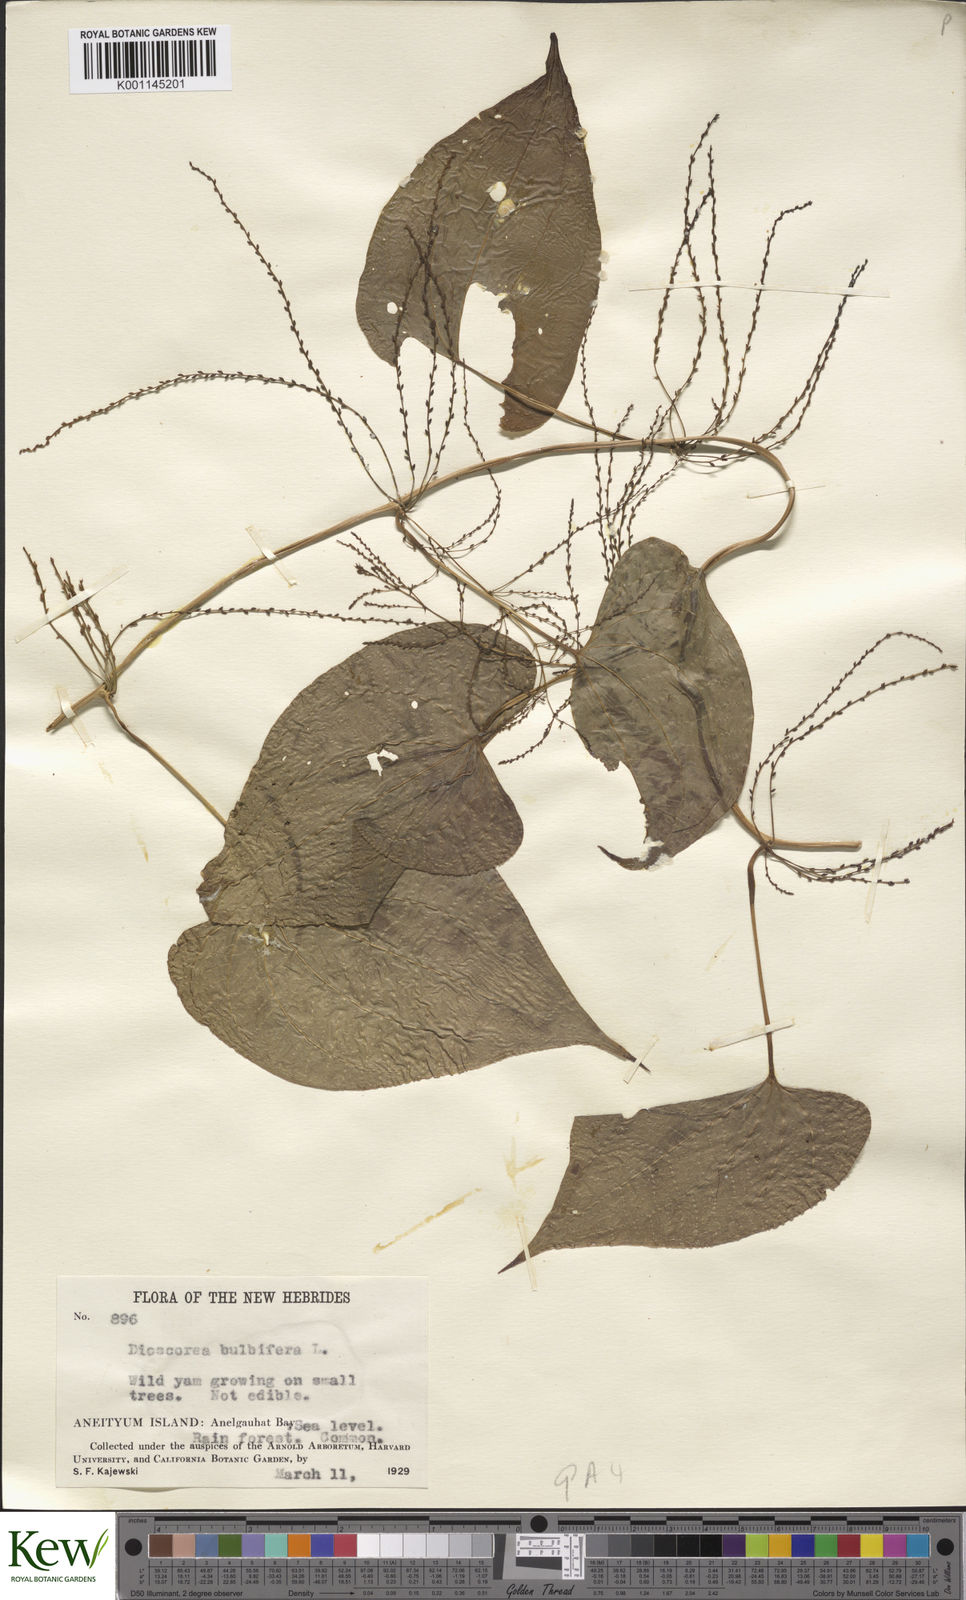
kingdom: Plantae
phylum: Tracheophyta
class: Liliopsida
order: Dioscoreales
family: Dioscoreaceae
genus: Dioscorea
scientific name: Dioscorea bulbifera
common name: Air yam
